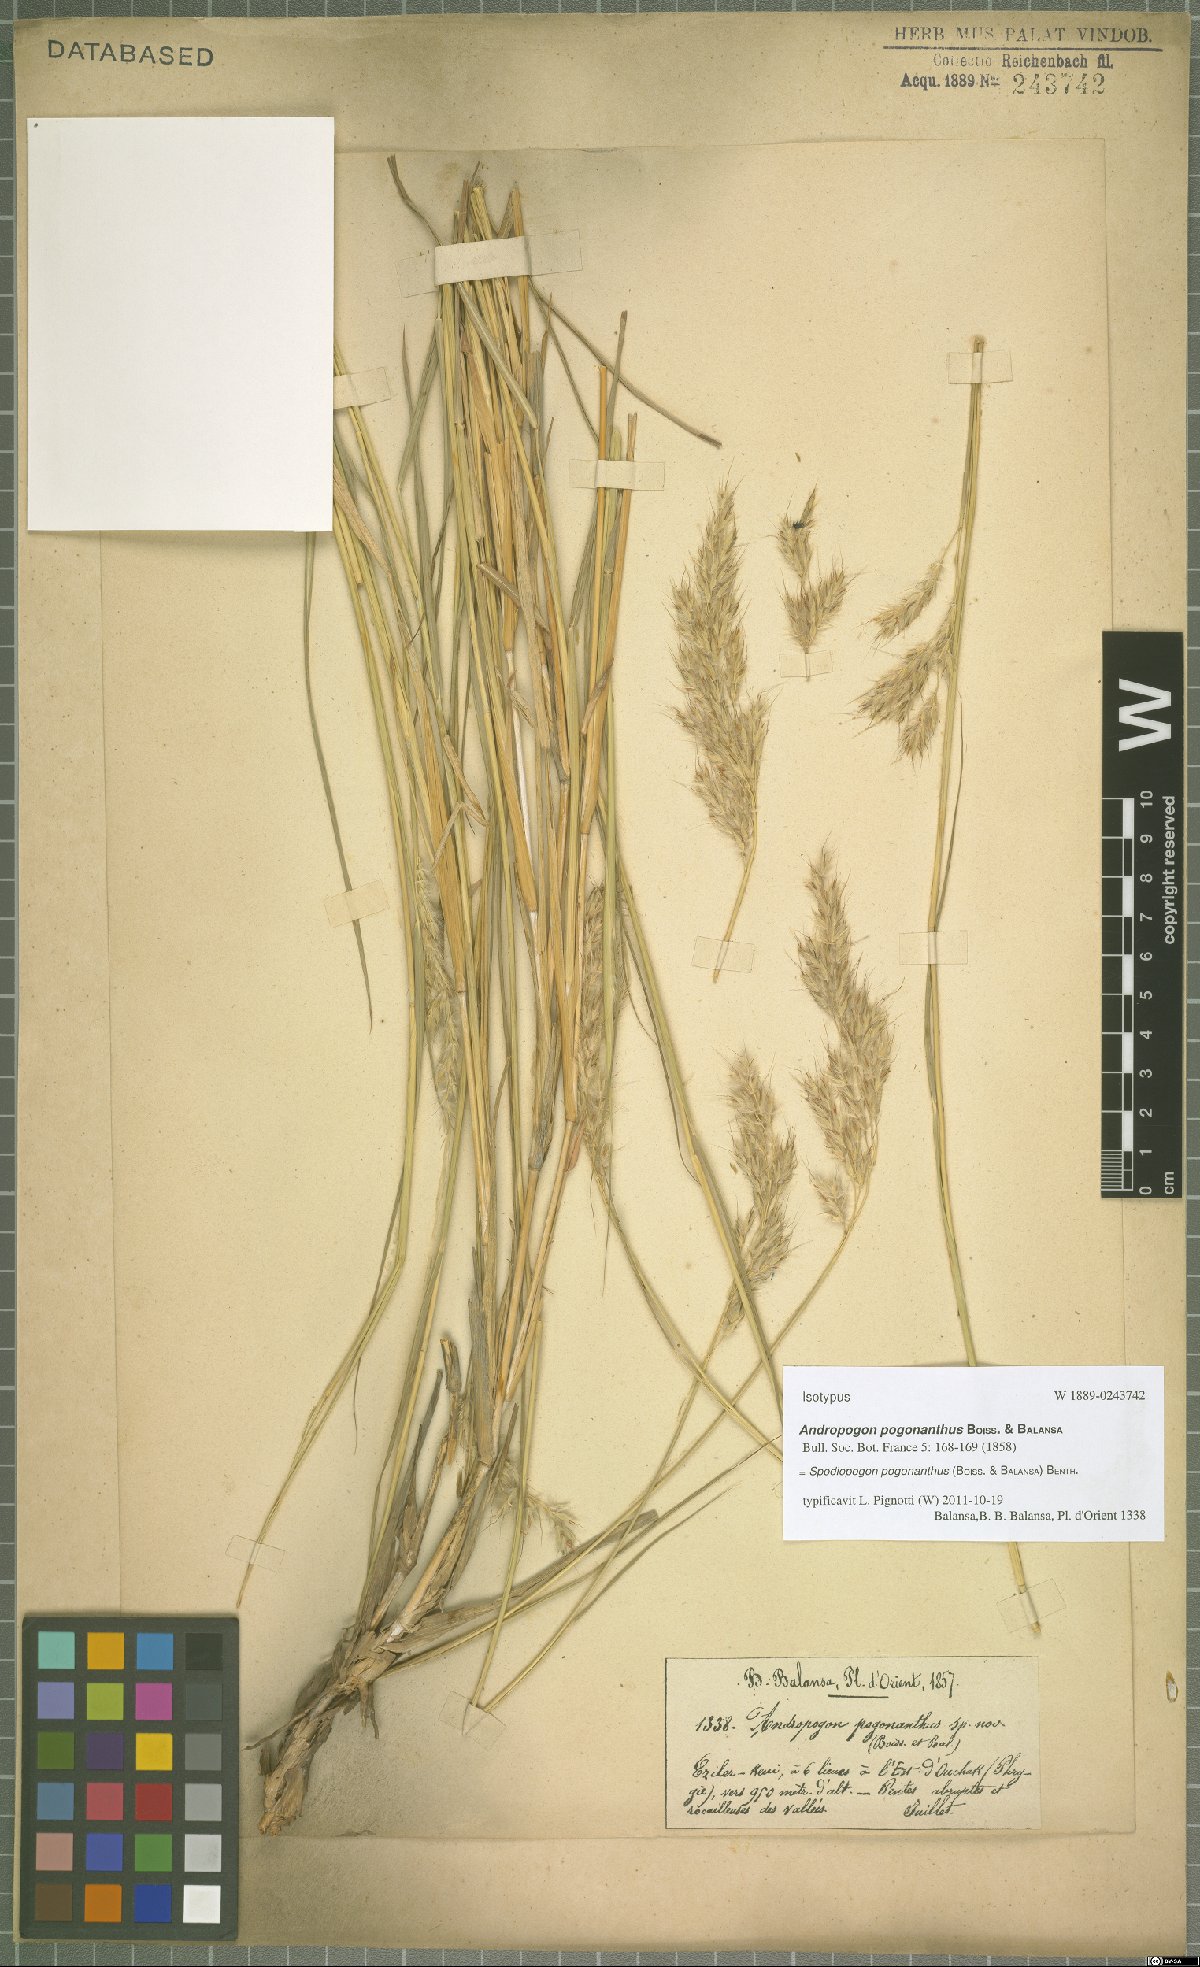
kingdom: Plantae
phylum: Tracheophyta
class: Liliopsida
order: Poales
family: Poaceae
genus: Spodiopogon
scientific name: Spodiopogon pogonanthus
